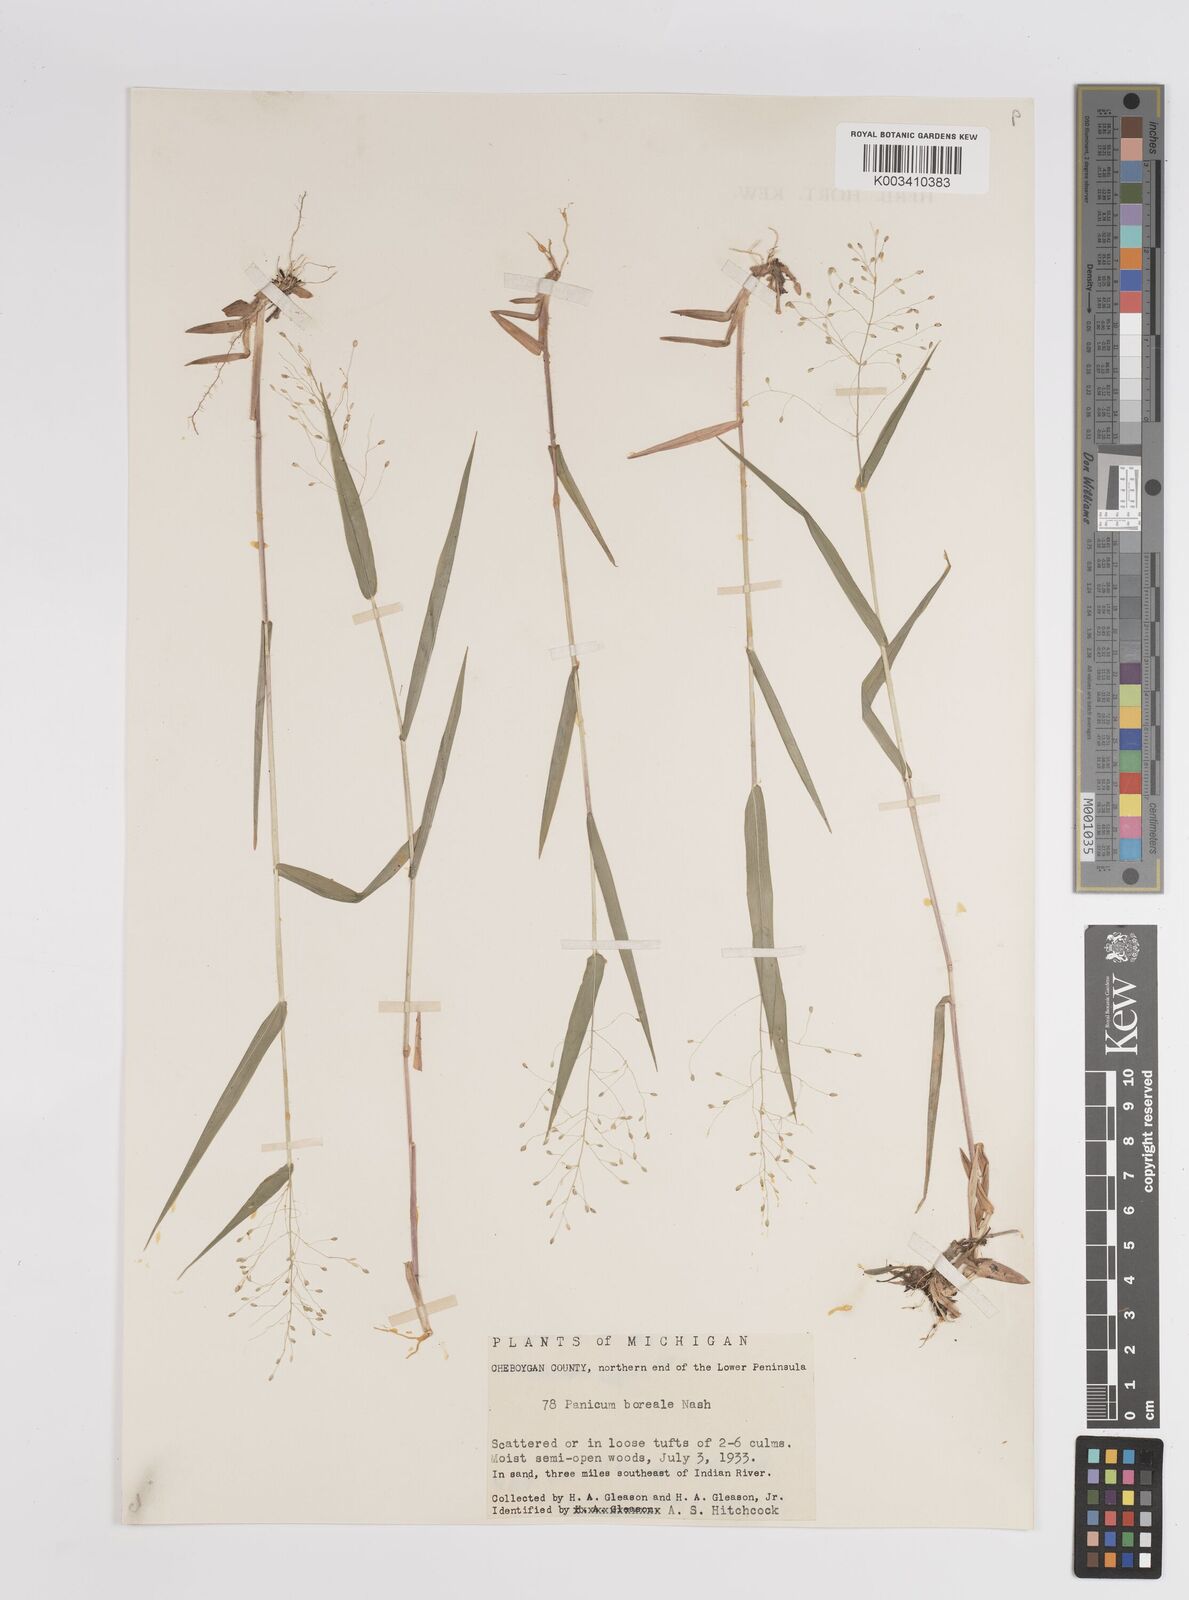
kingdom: Plantae
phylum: Tracheophyta
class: Liliopsida
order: Poales
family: Poaceae
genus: Dichanthelium
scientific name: Dichanthelium boreale
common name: Northern panicgrass
